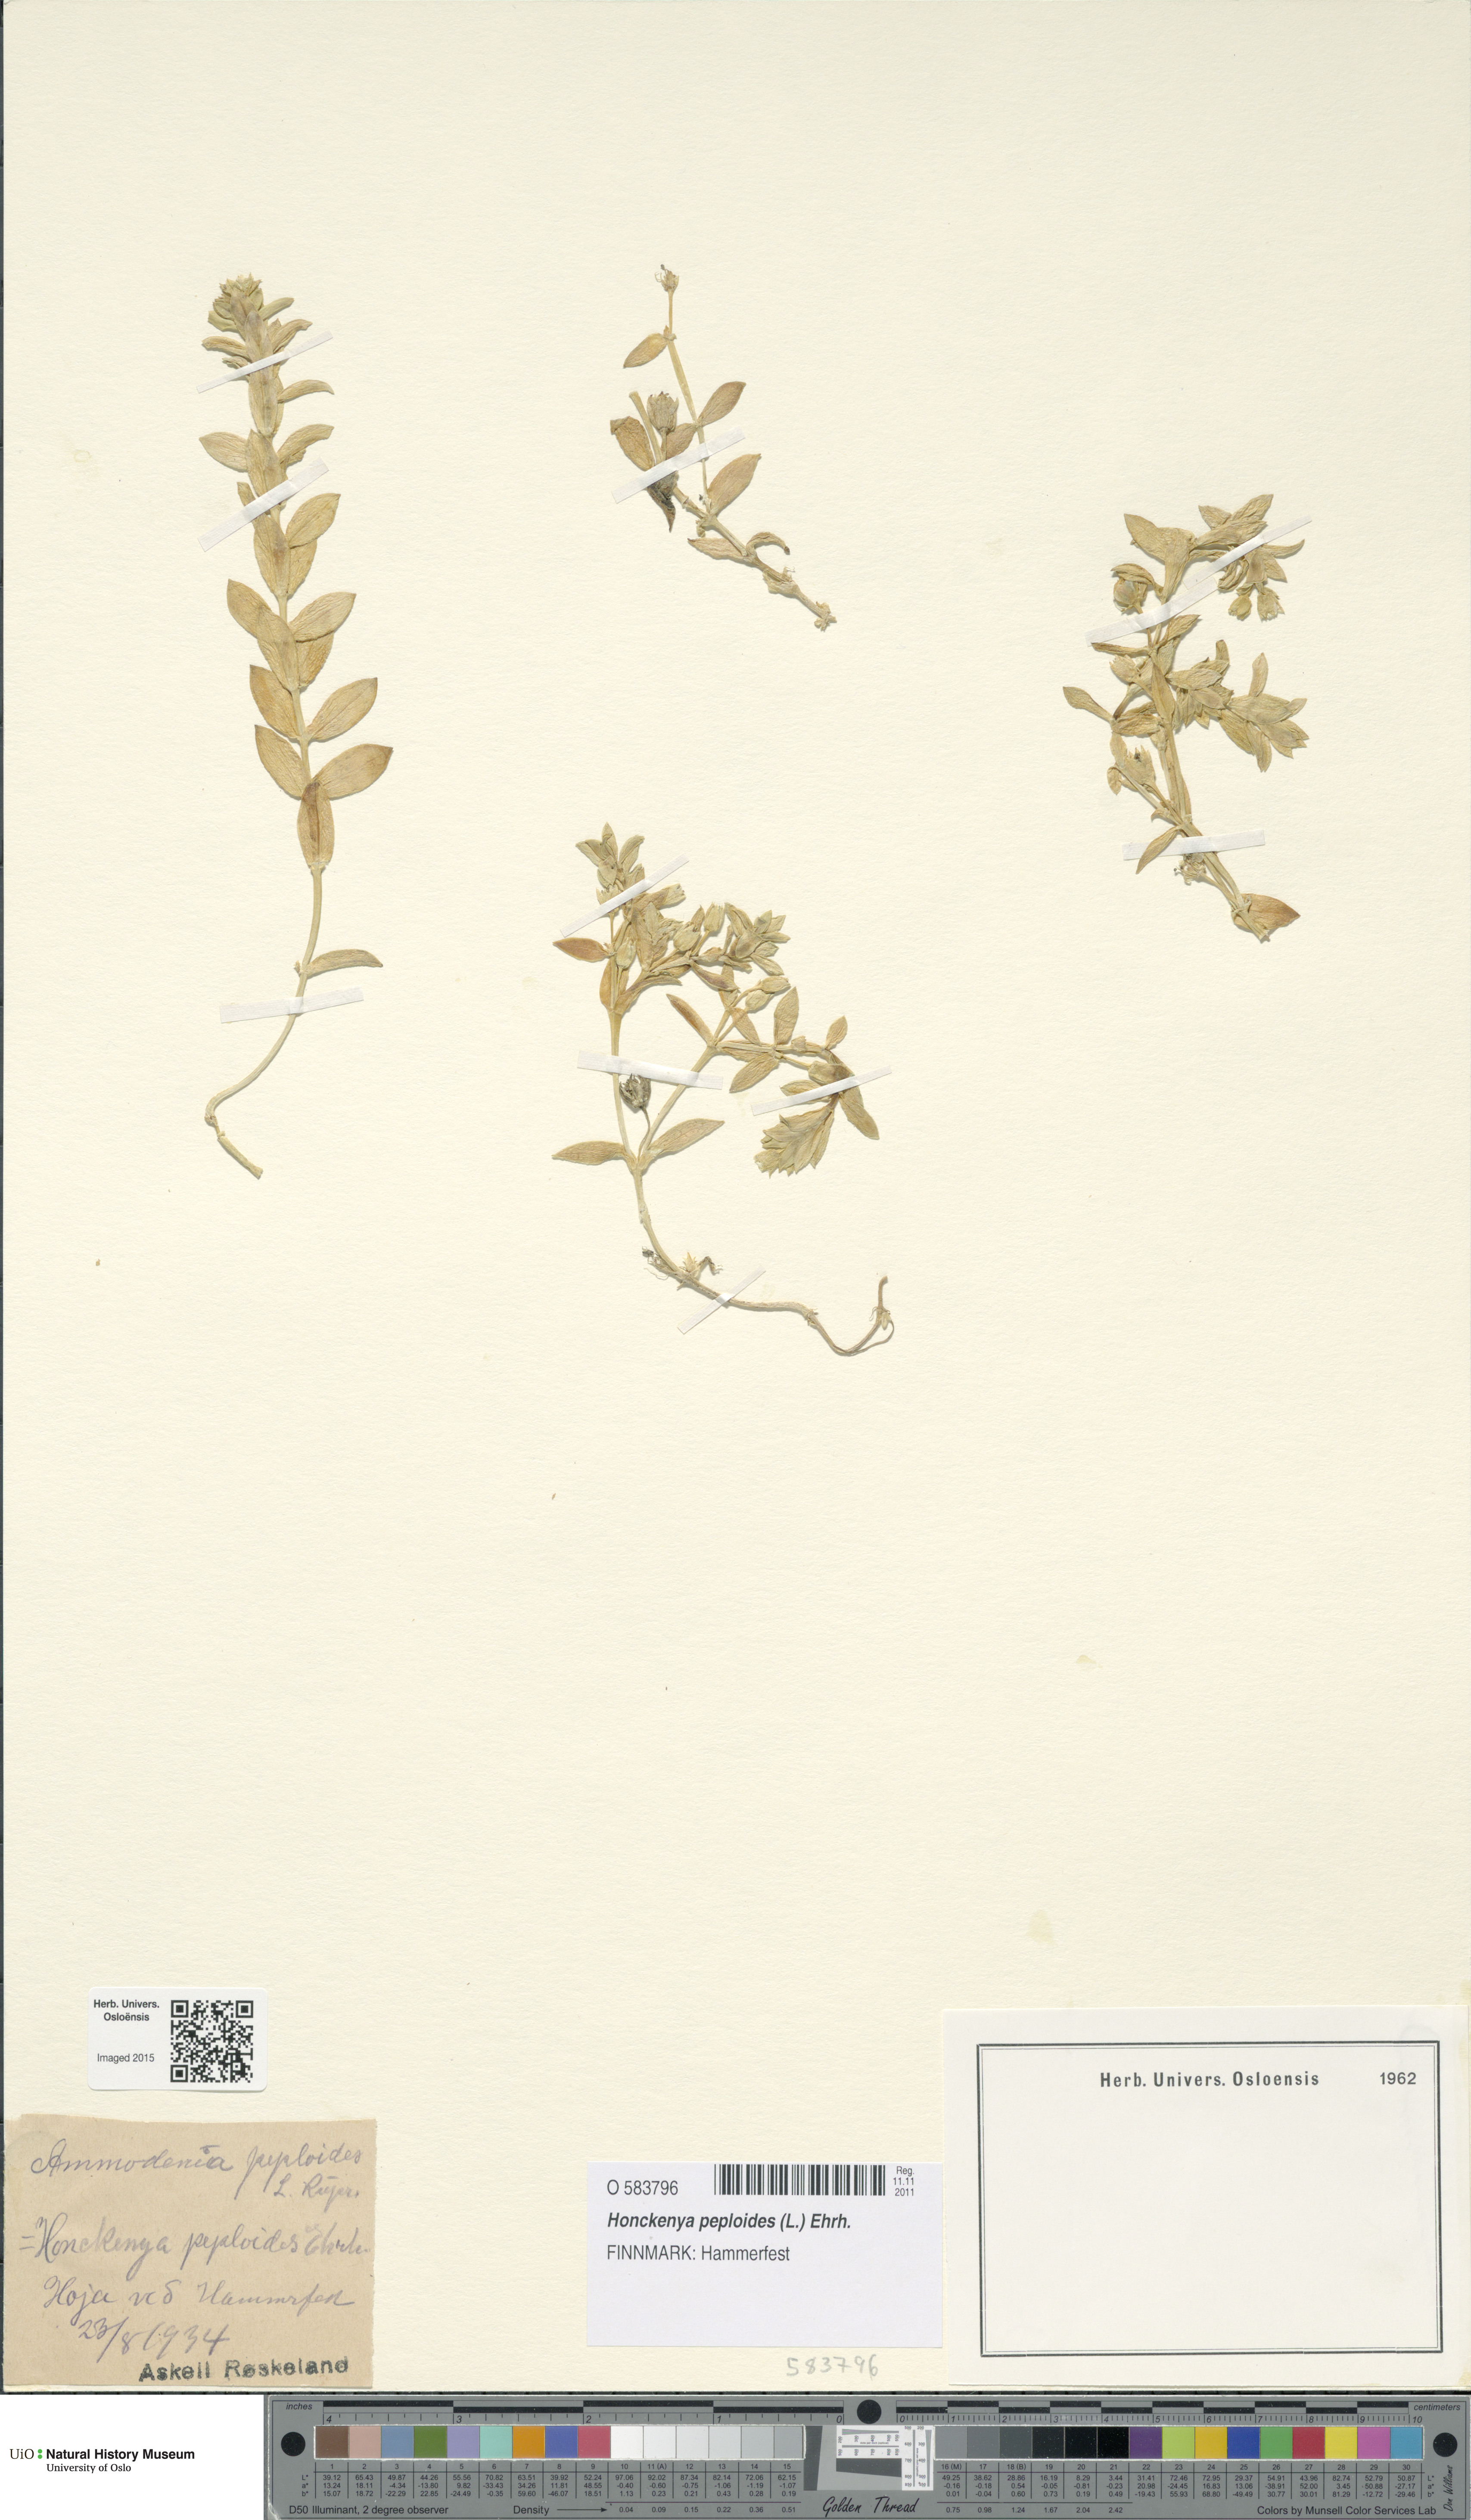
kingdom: Plantae
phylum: Tracheophyta
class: Magnoliopsida
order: Caryophyllales
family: Caryophyllaceae
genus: Honckenya
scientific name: Honckenya peploides
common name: Sea sandwort
